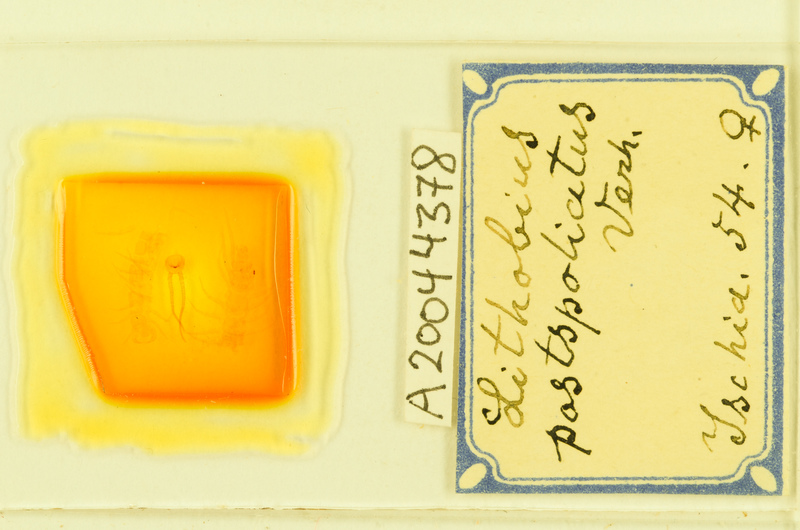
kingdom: Animalia
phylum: Arthropoda
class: Chilopoda
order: Lithobiomorpha
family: Lithobiidae
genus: Lithobius
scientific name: Lithobius tylopus
